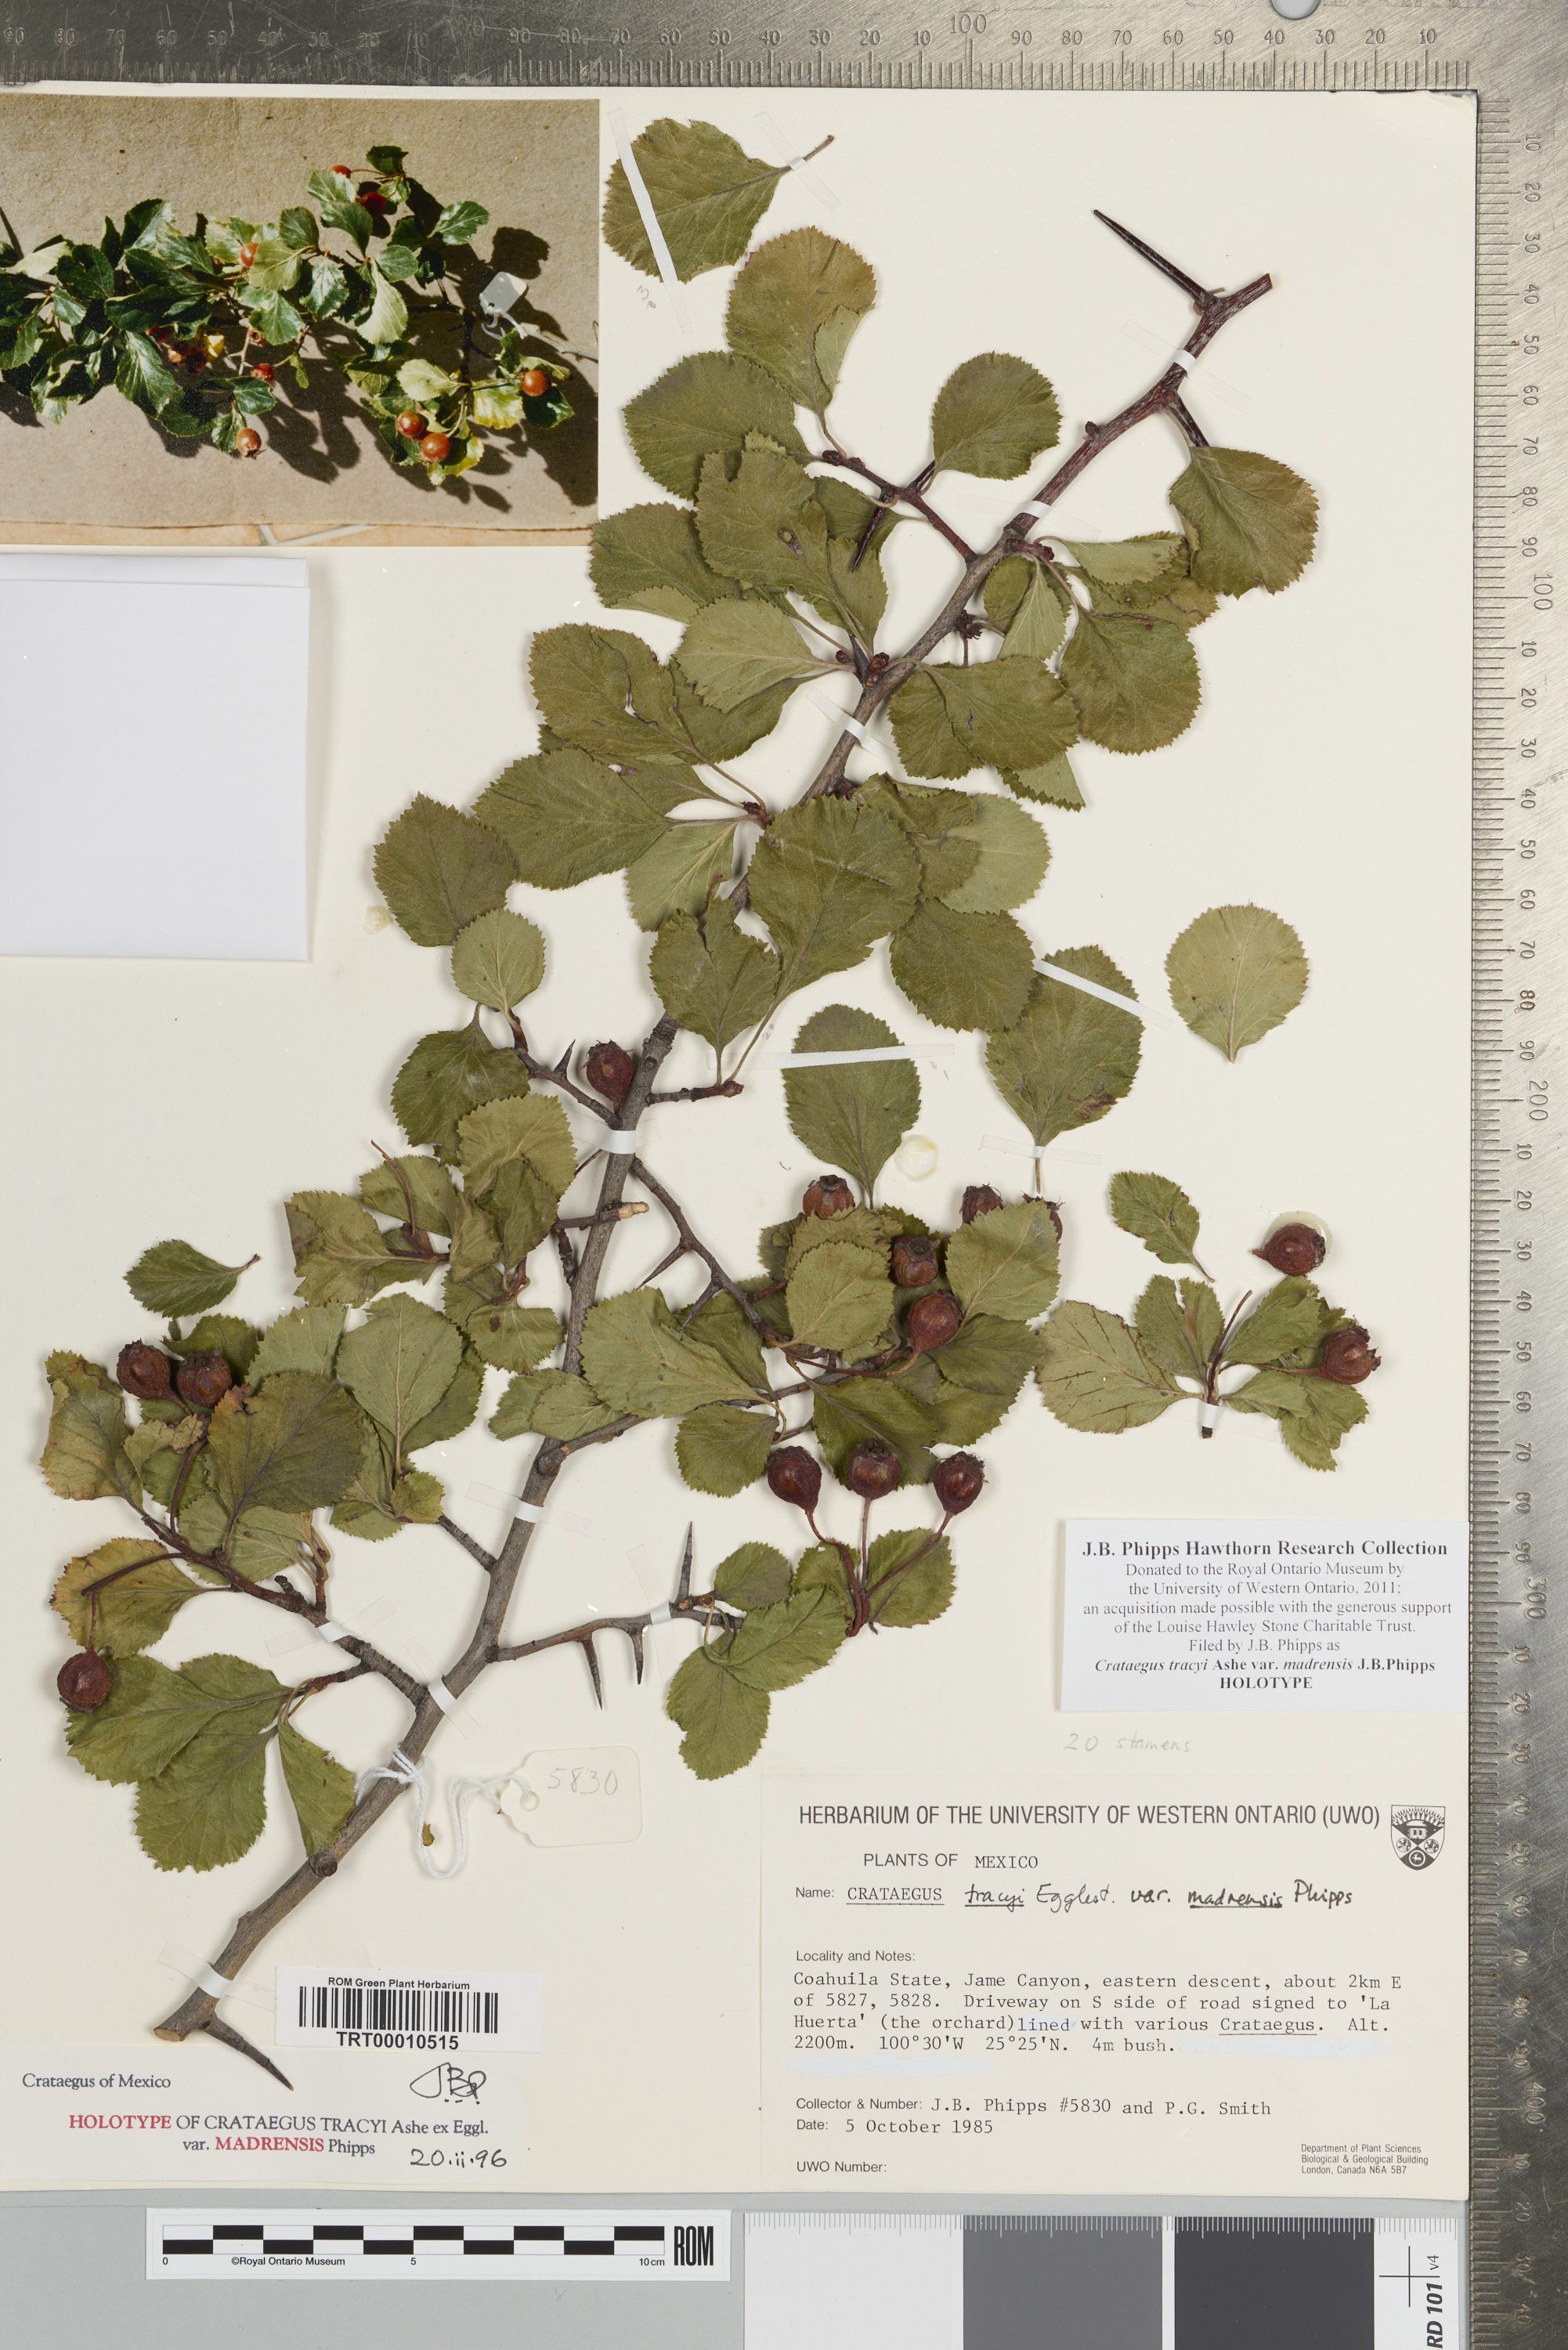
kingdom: Plantae
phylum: Tracheophyta
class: Magnoliopsida
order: Rosales
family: Rosaceae
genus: Crataegus
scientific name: Crataegus tracyi
